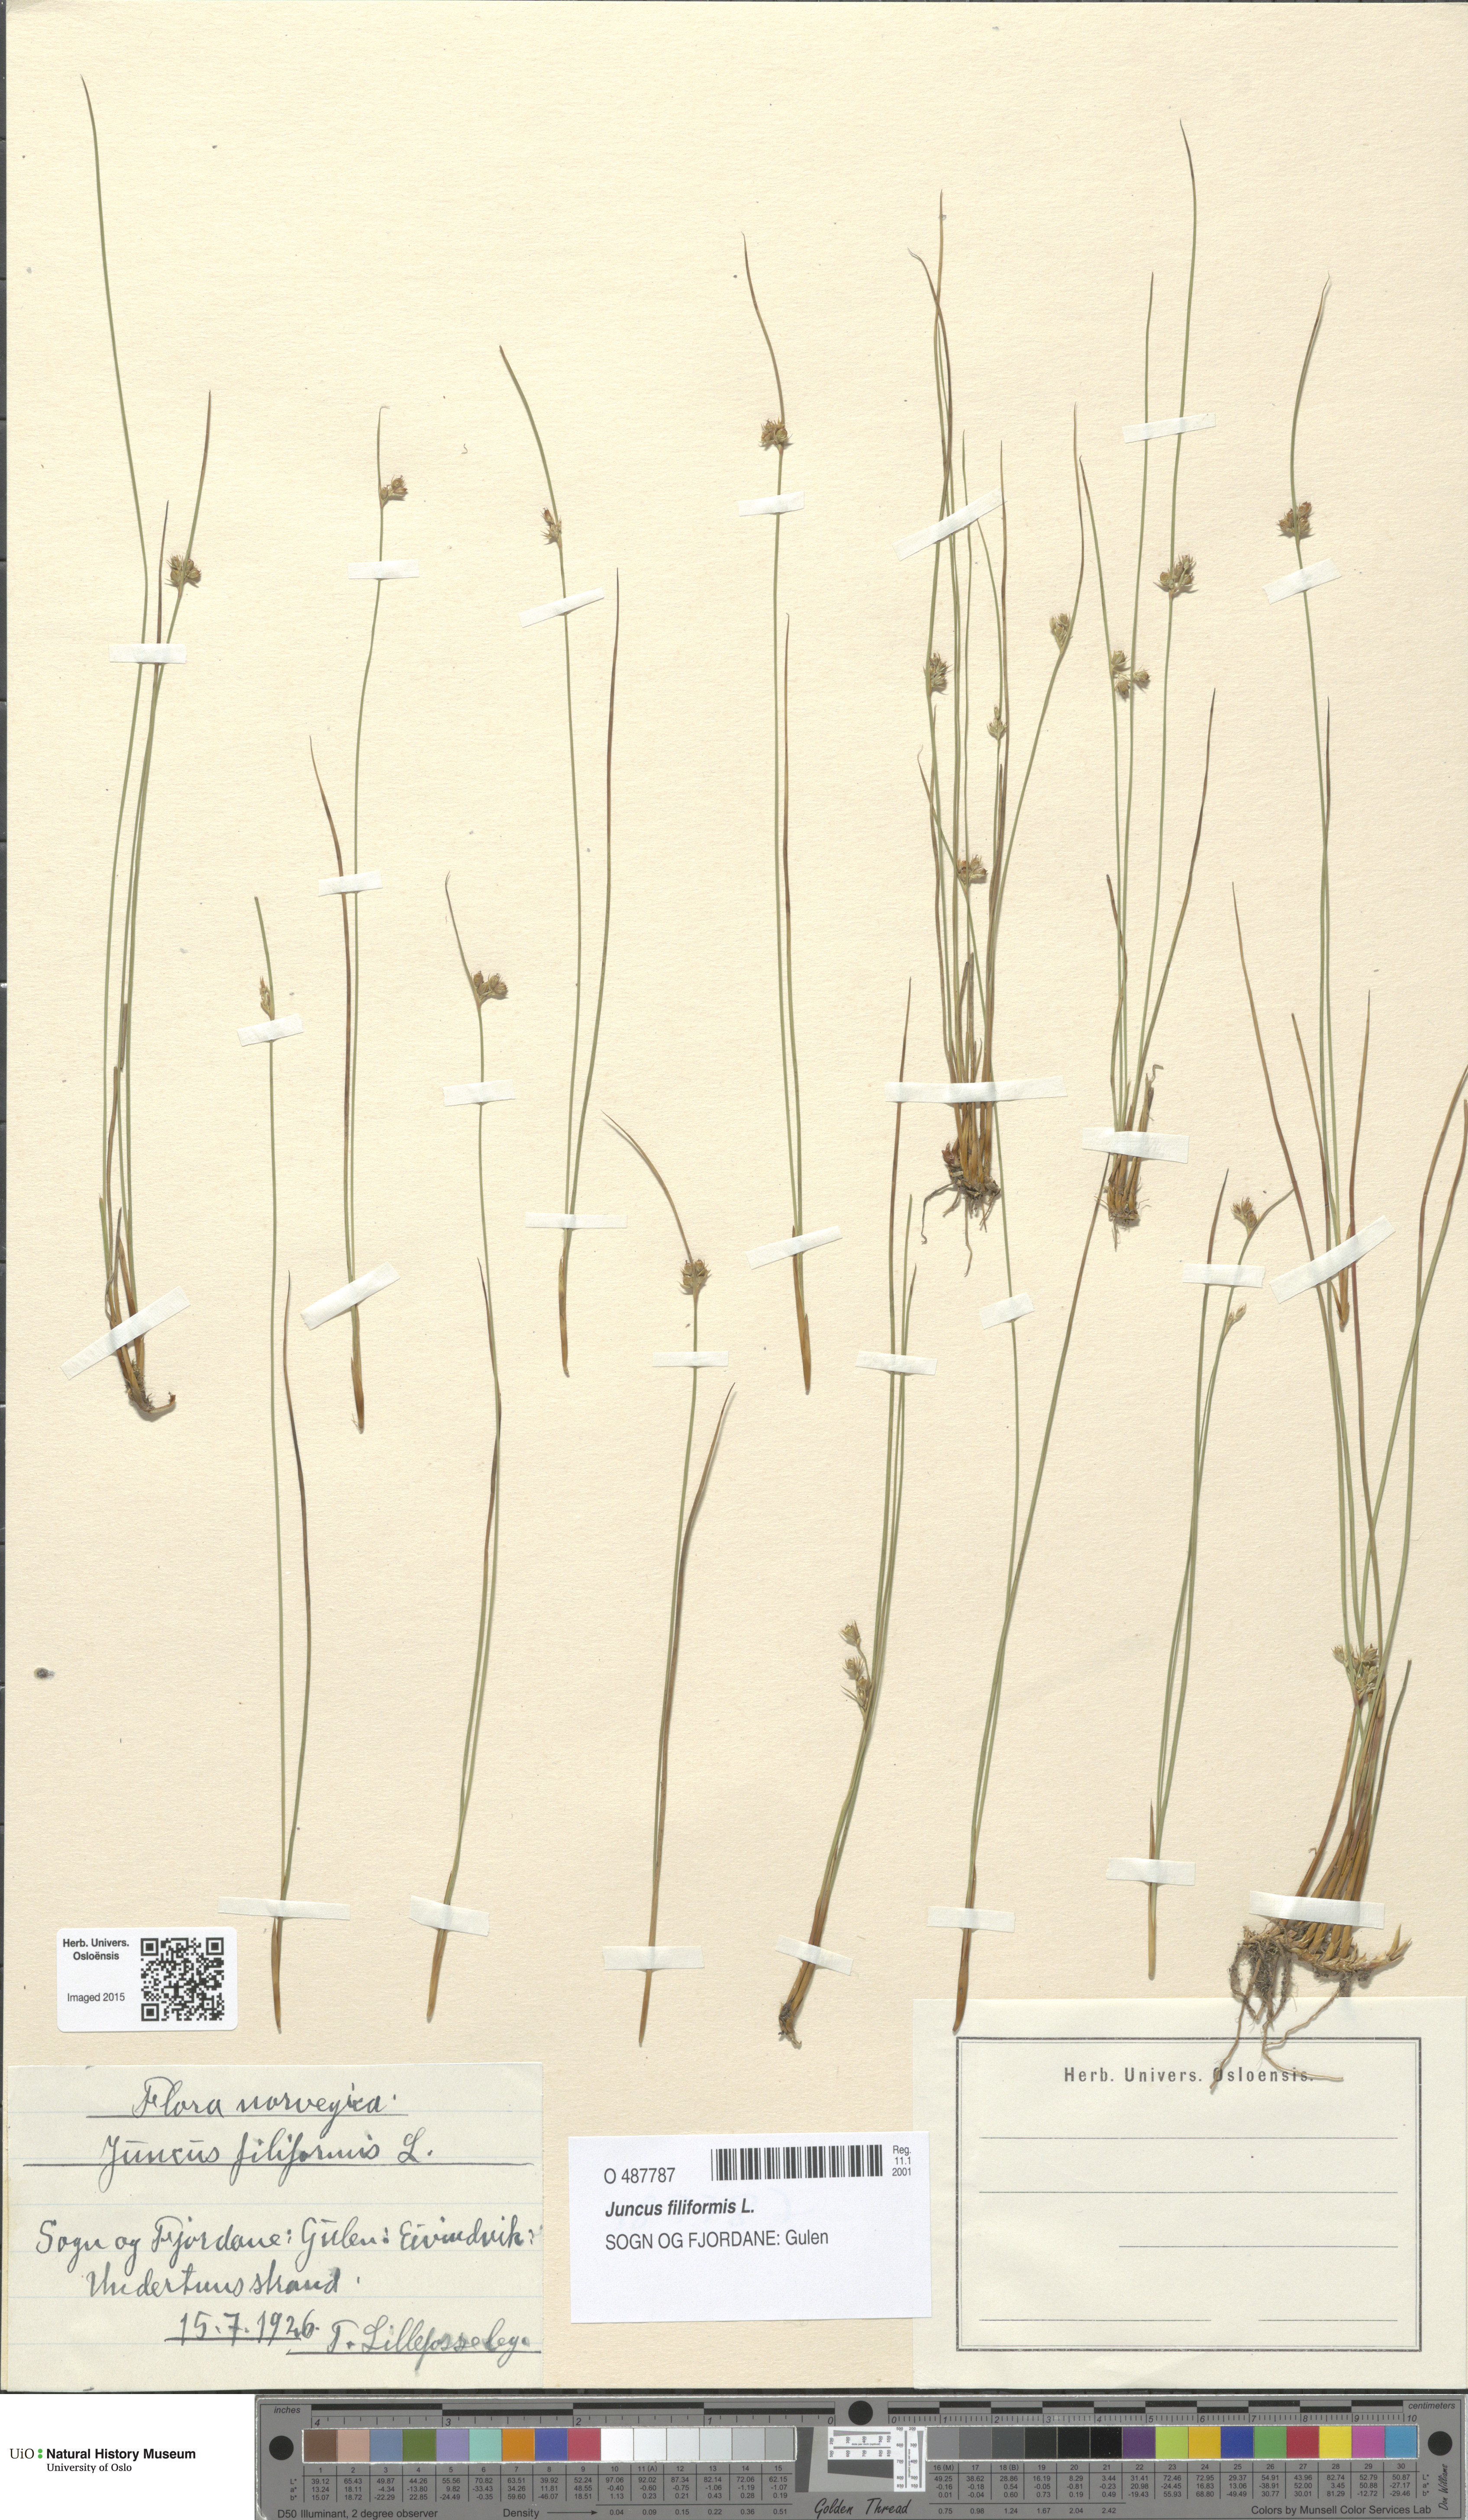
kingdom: Plantae
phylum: Tracheophyta
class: Liliopsida
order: Poales
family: Juncaceae
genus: Juncus
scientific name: Juncus filiformis
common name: Thread rush
